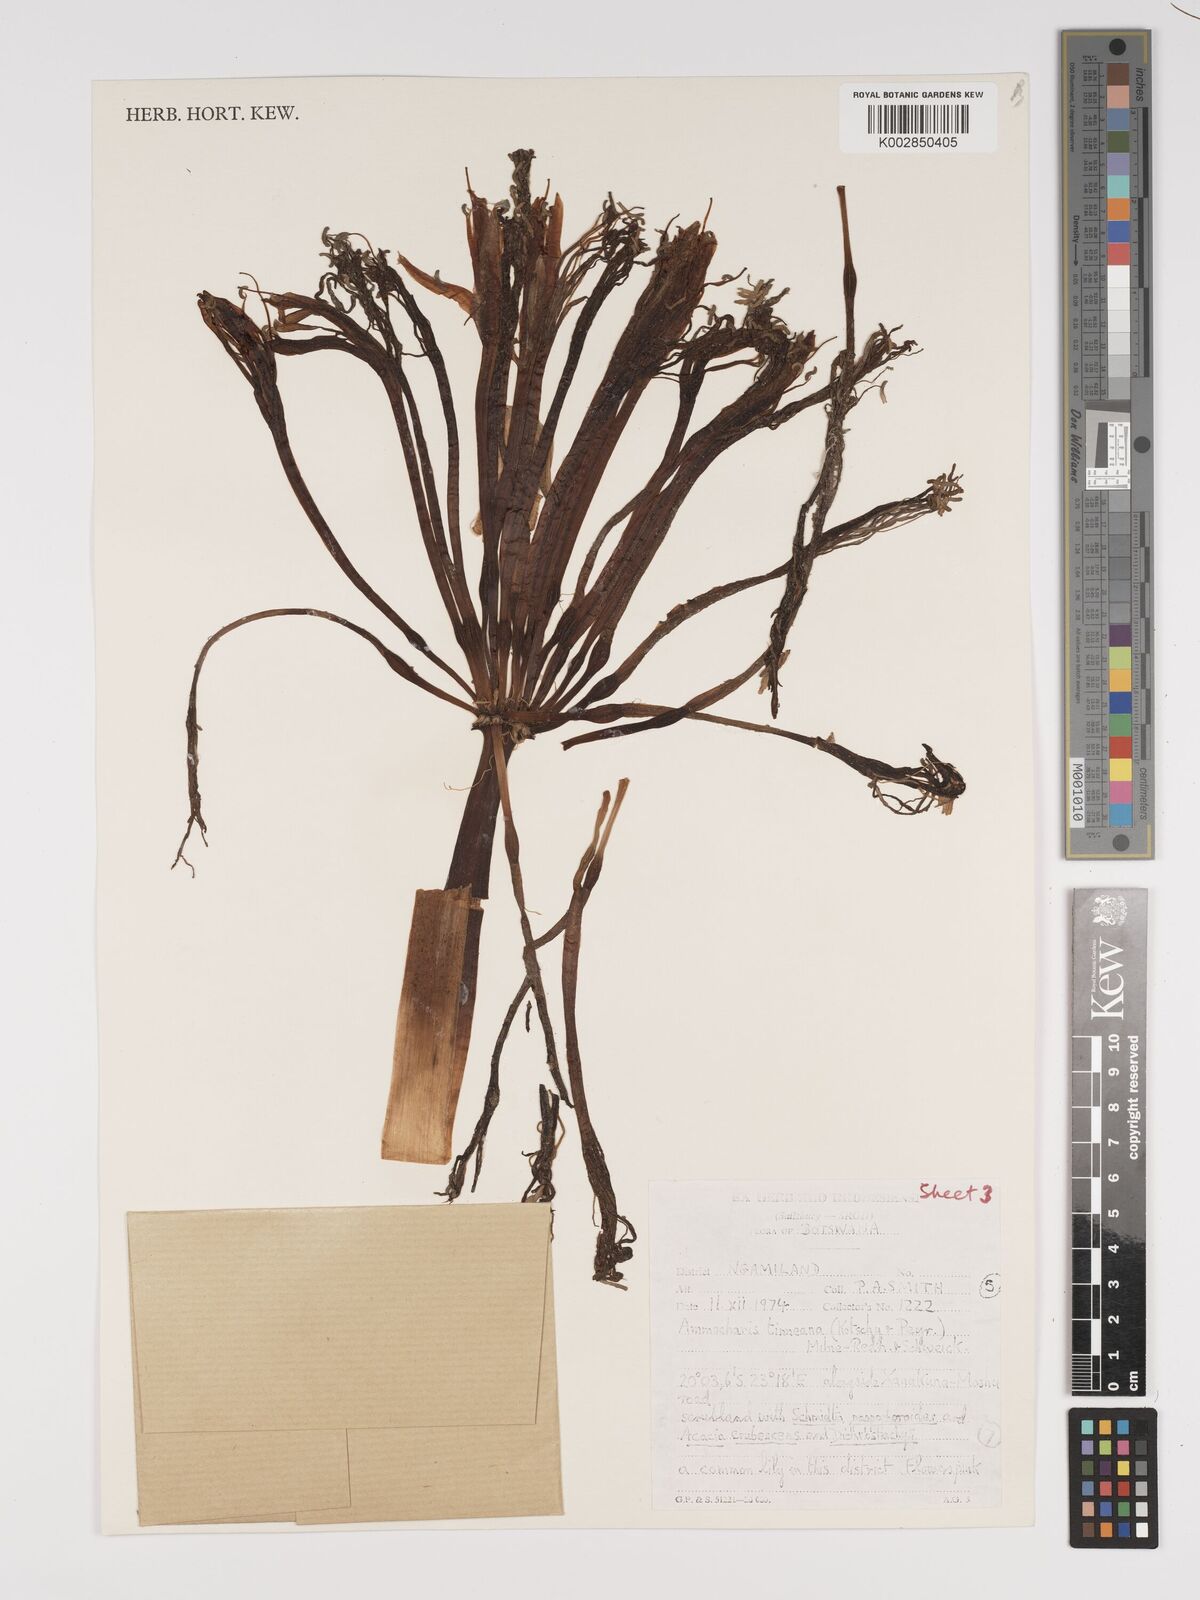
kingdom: Plantae
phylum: Tracheophyta
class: Liliopsida
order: Asparagales
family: Amaryllidaceae
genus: Ammocharis
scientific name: Ammocharis tinneana
